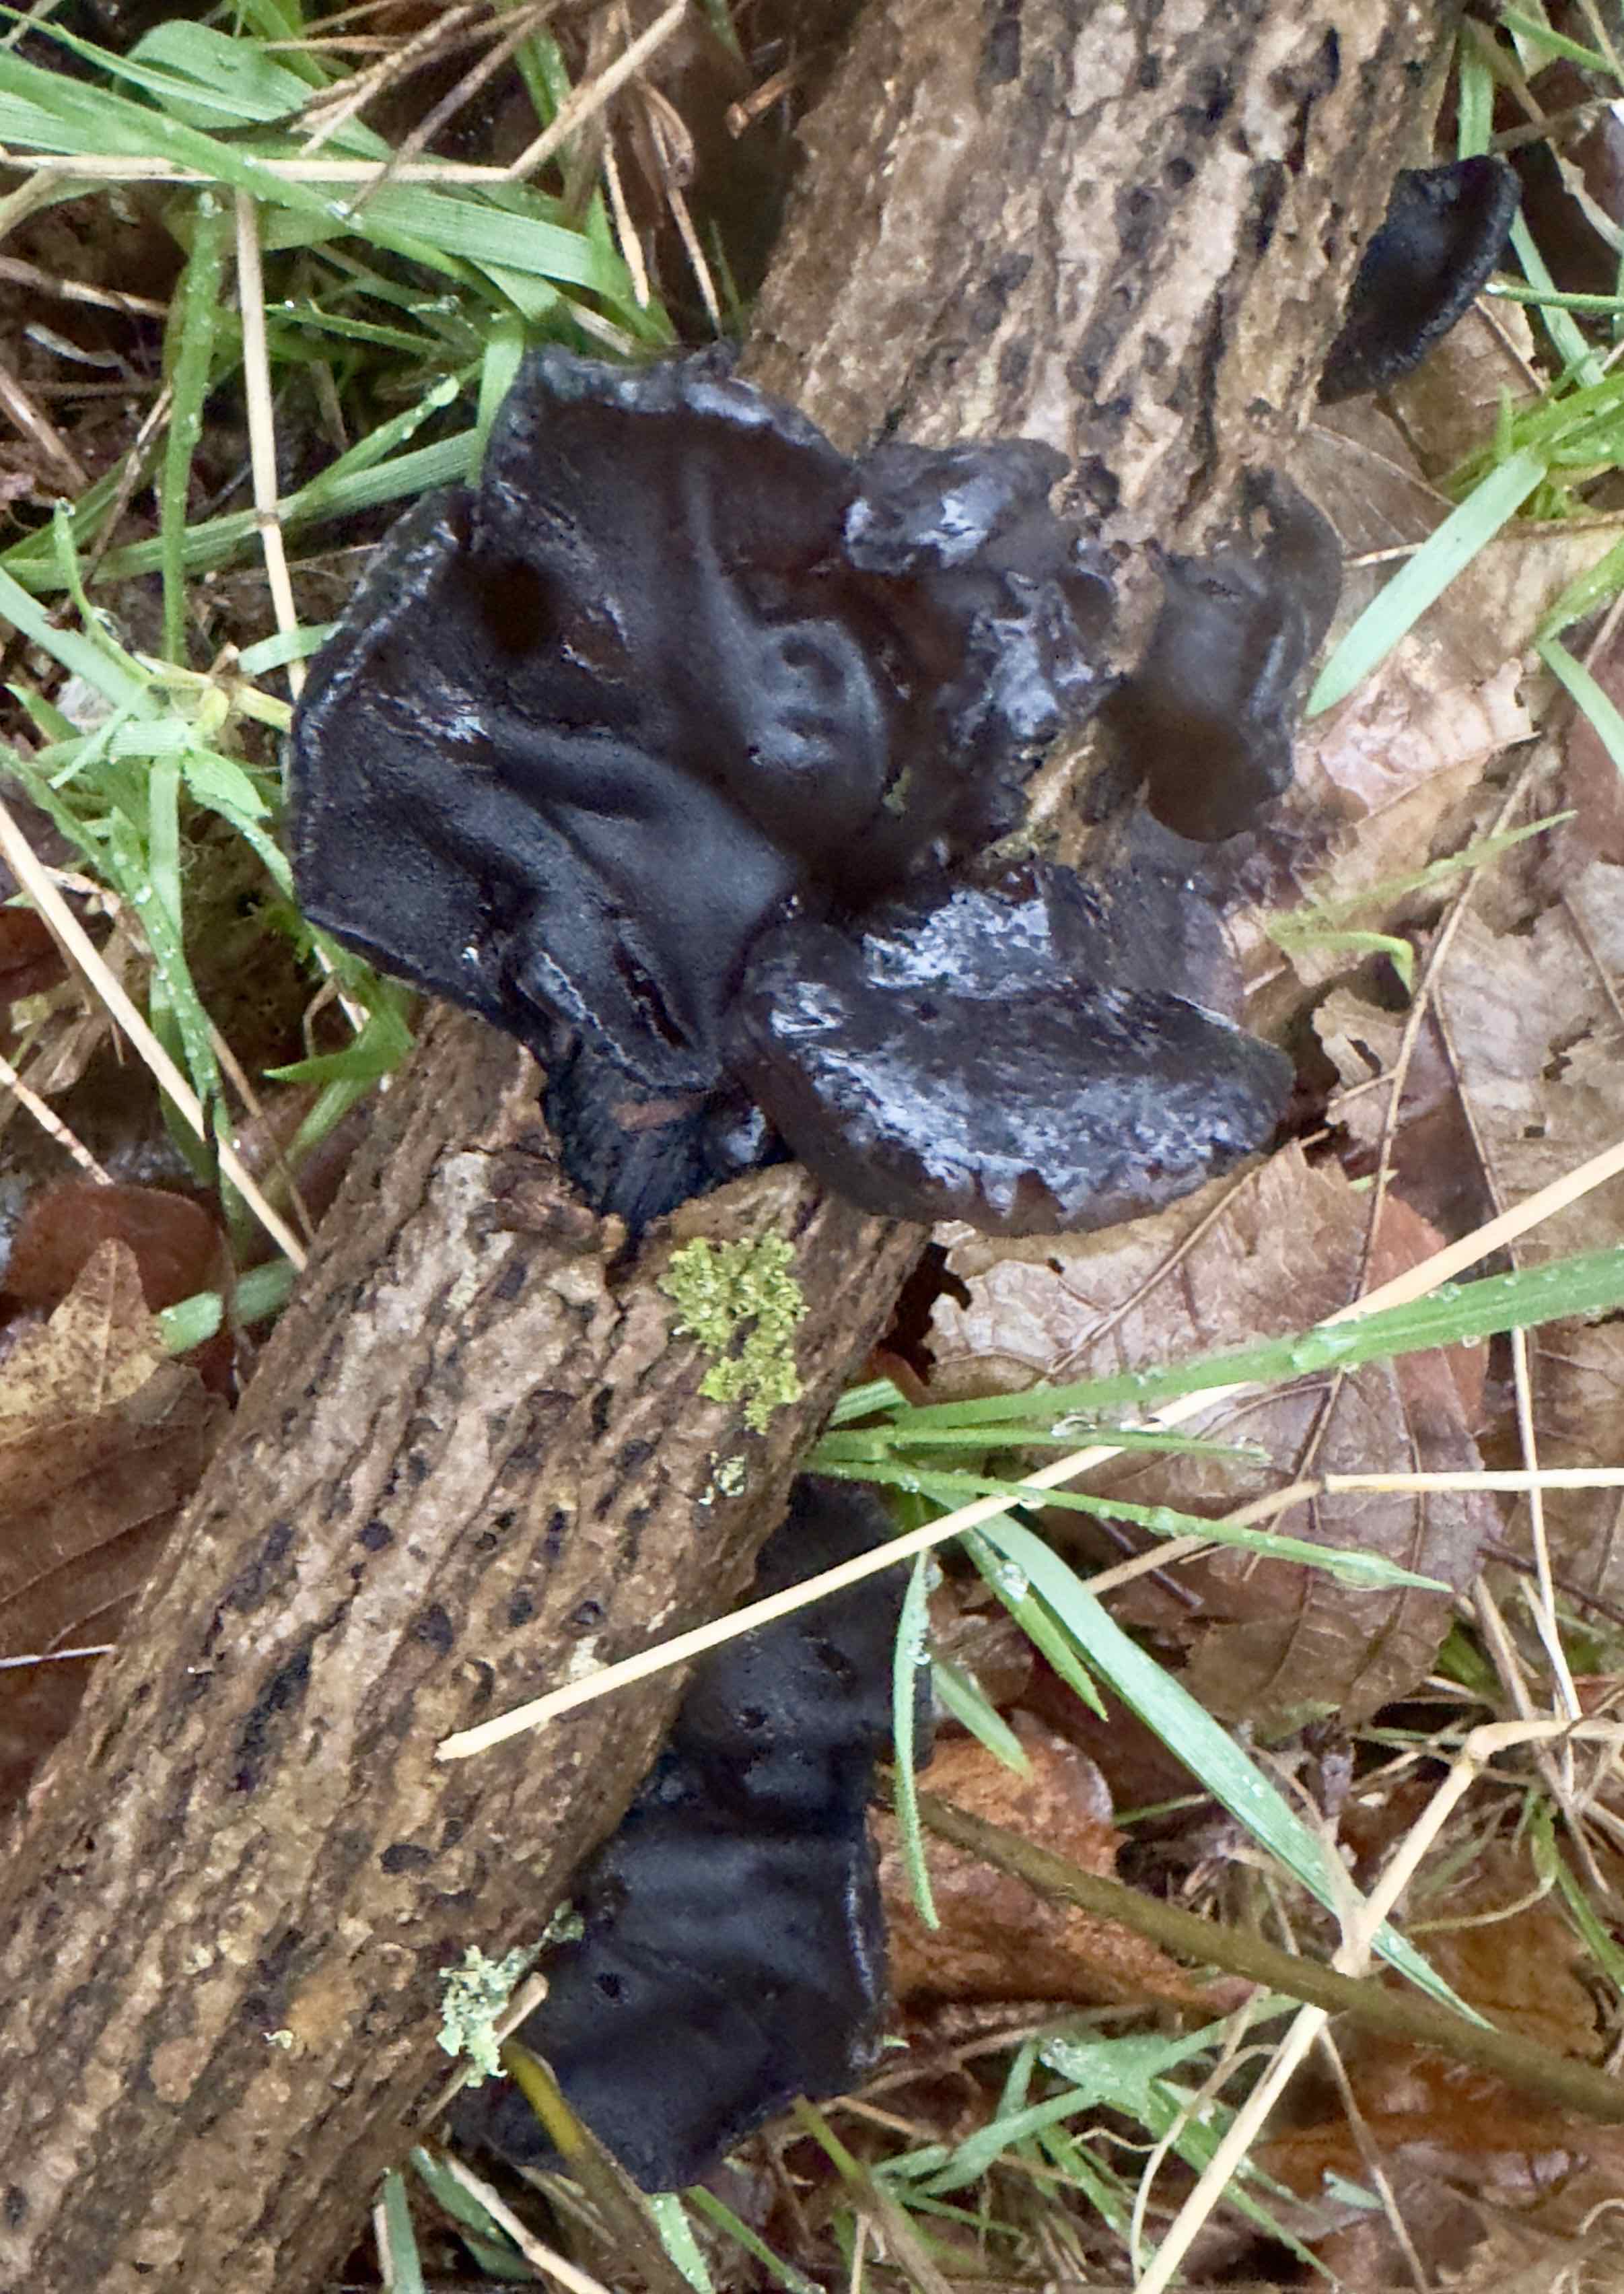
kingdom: Fungi
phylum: Basidiomycota
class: Agaricomycetes
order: Auriculariales
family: Auriculariaceae
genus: Exidia
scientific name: Exidia glandulosa
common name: ege-bævretop
